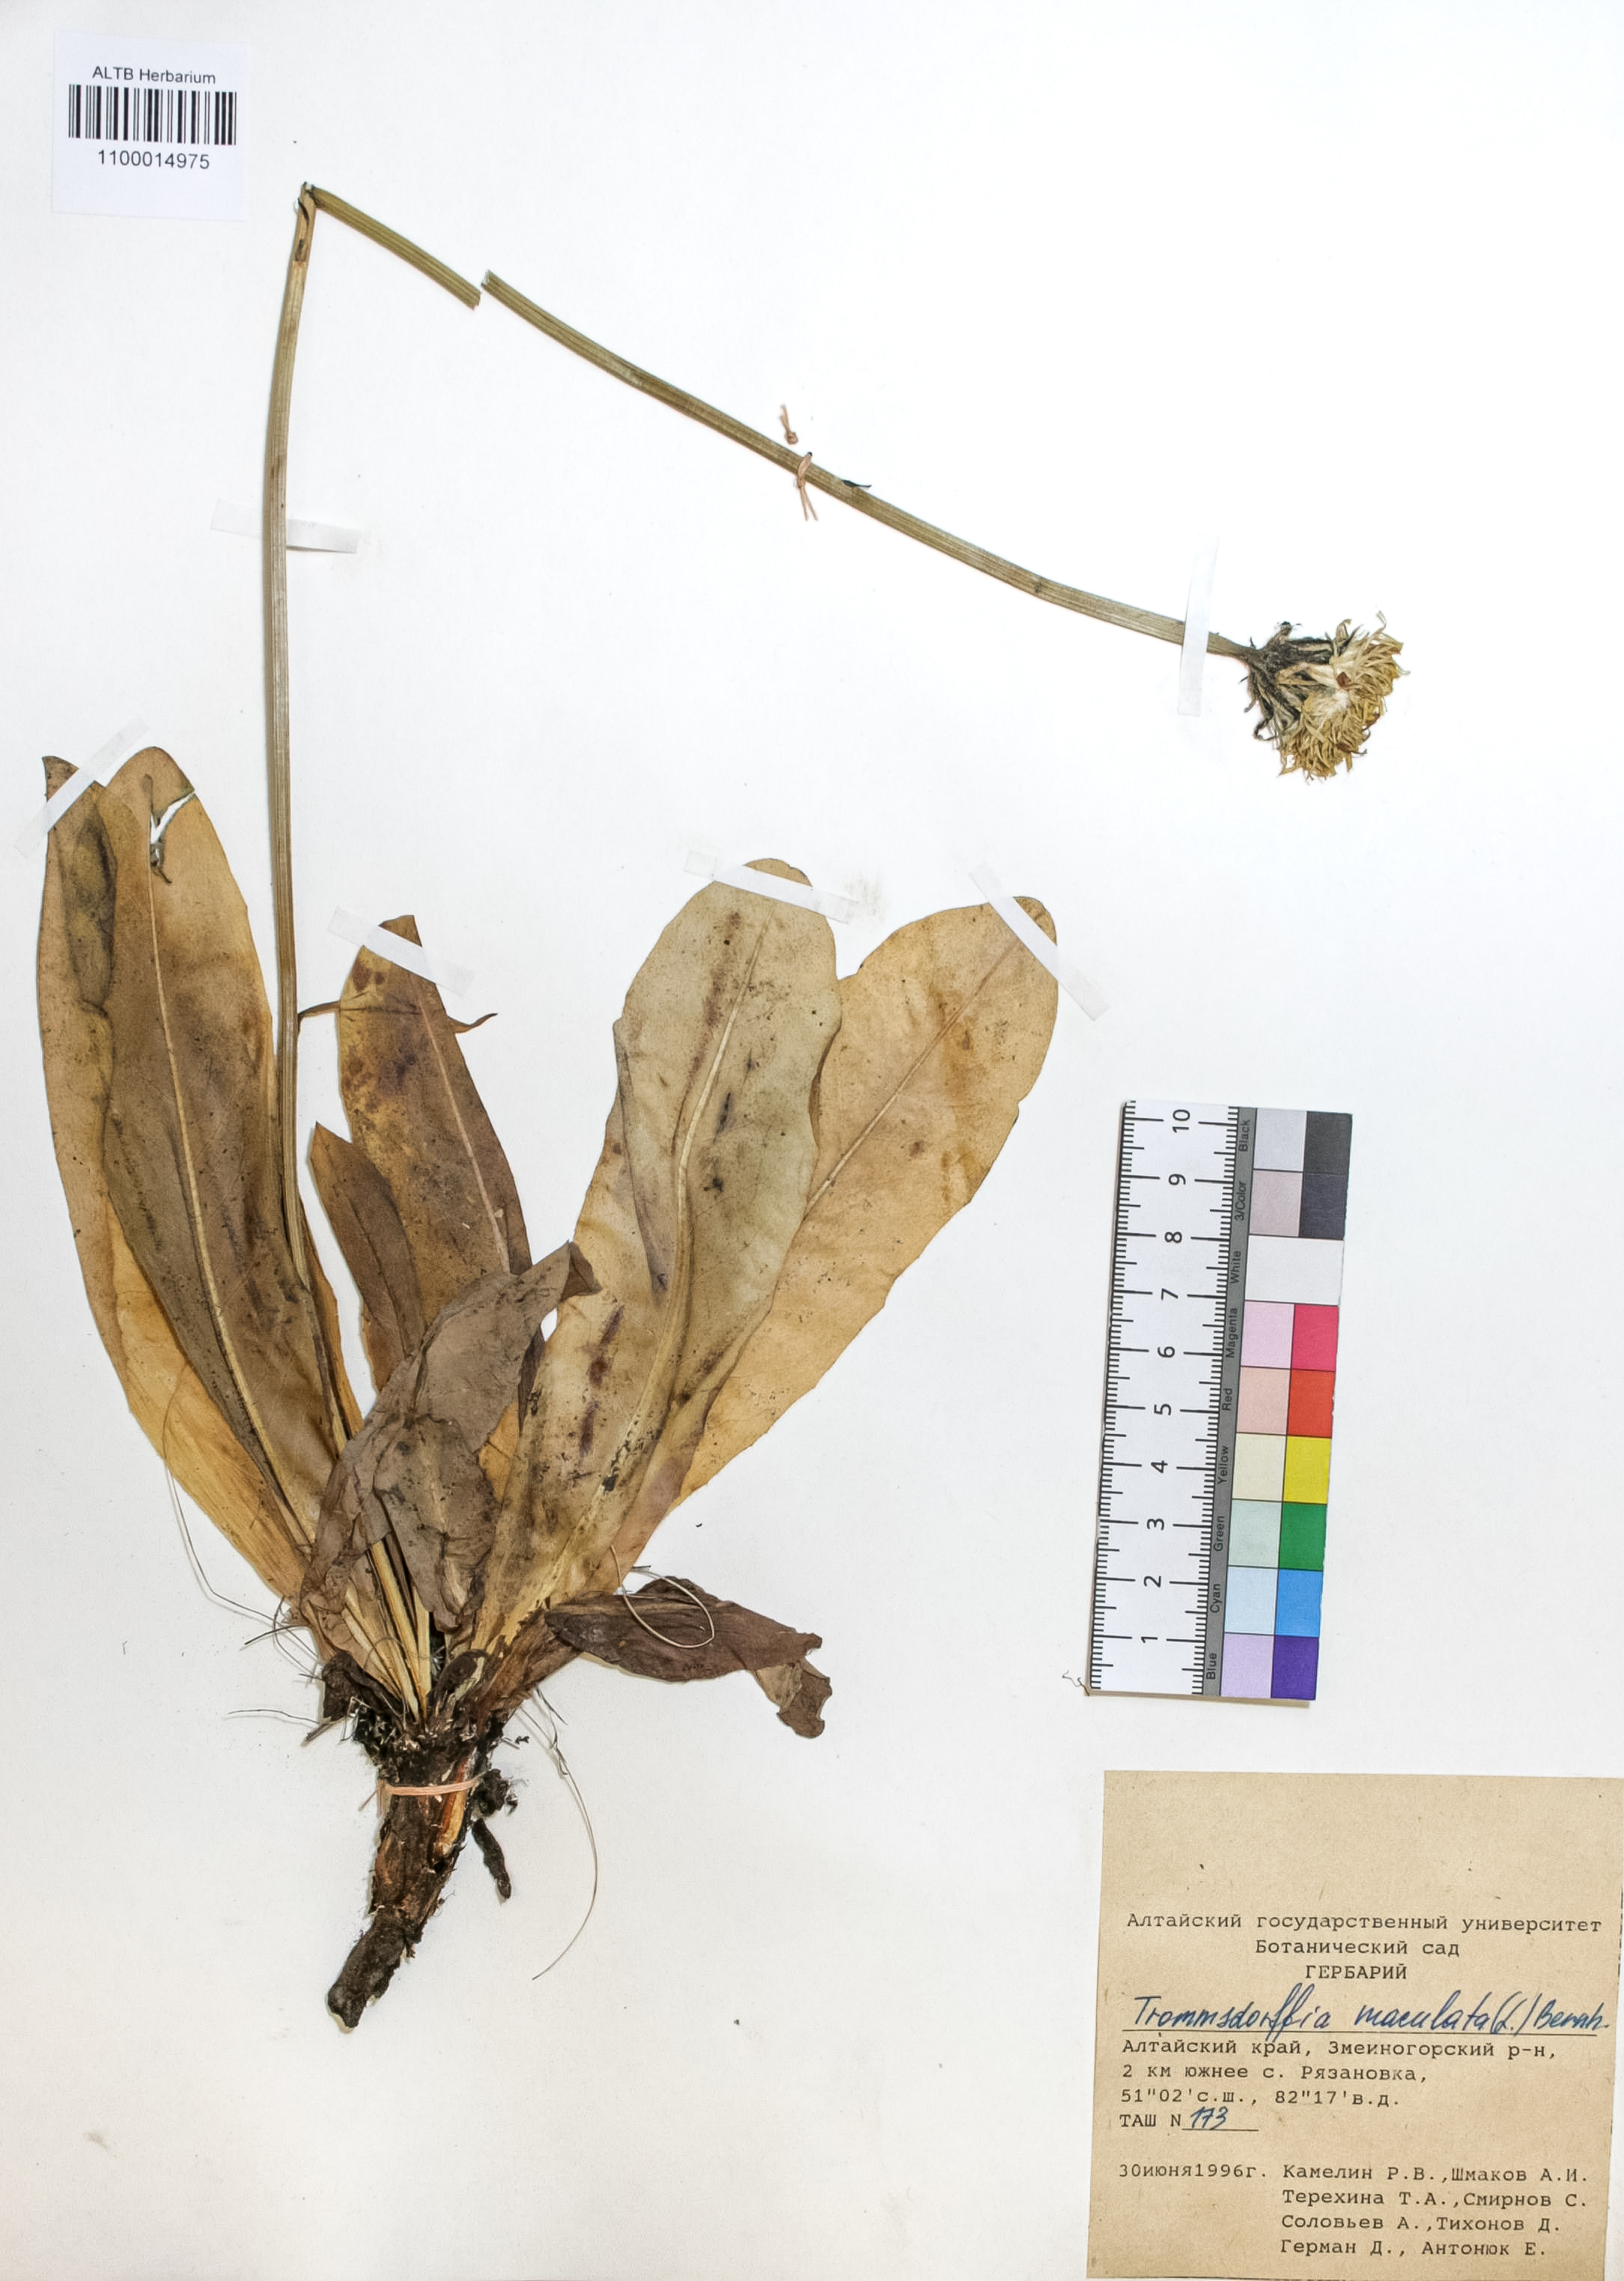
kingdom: Plantae
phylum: Tracheophyta
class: Magnoliopsida
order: Asterales
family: Asteraceae
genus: Trommsdorffia
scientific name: Trommsdorffia maculata
